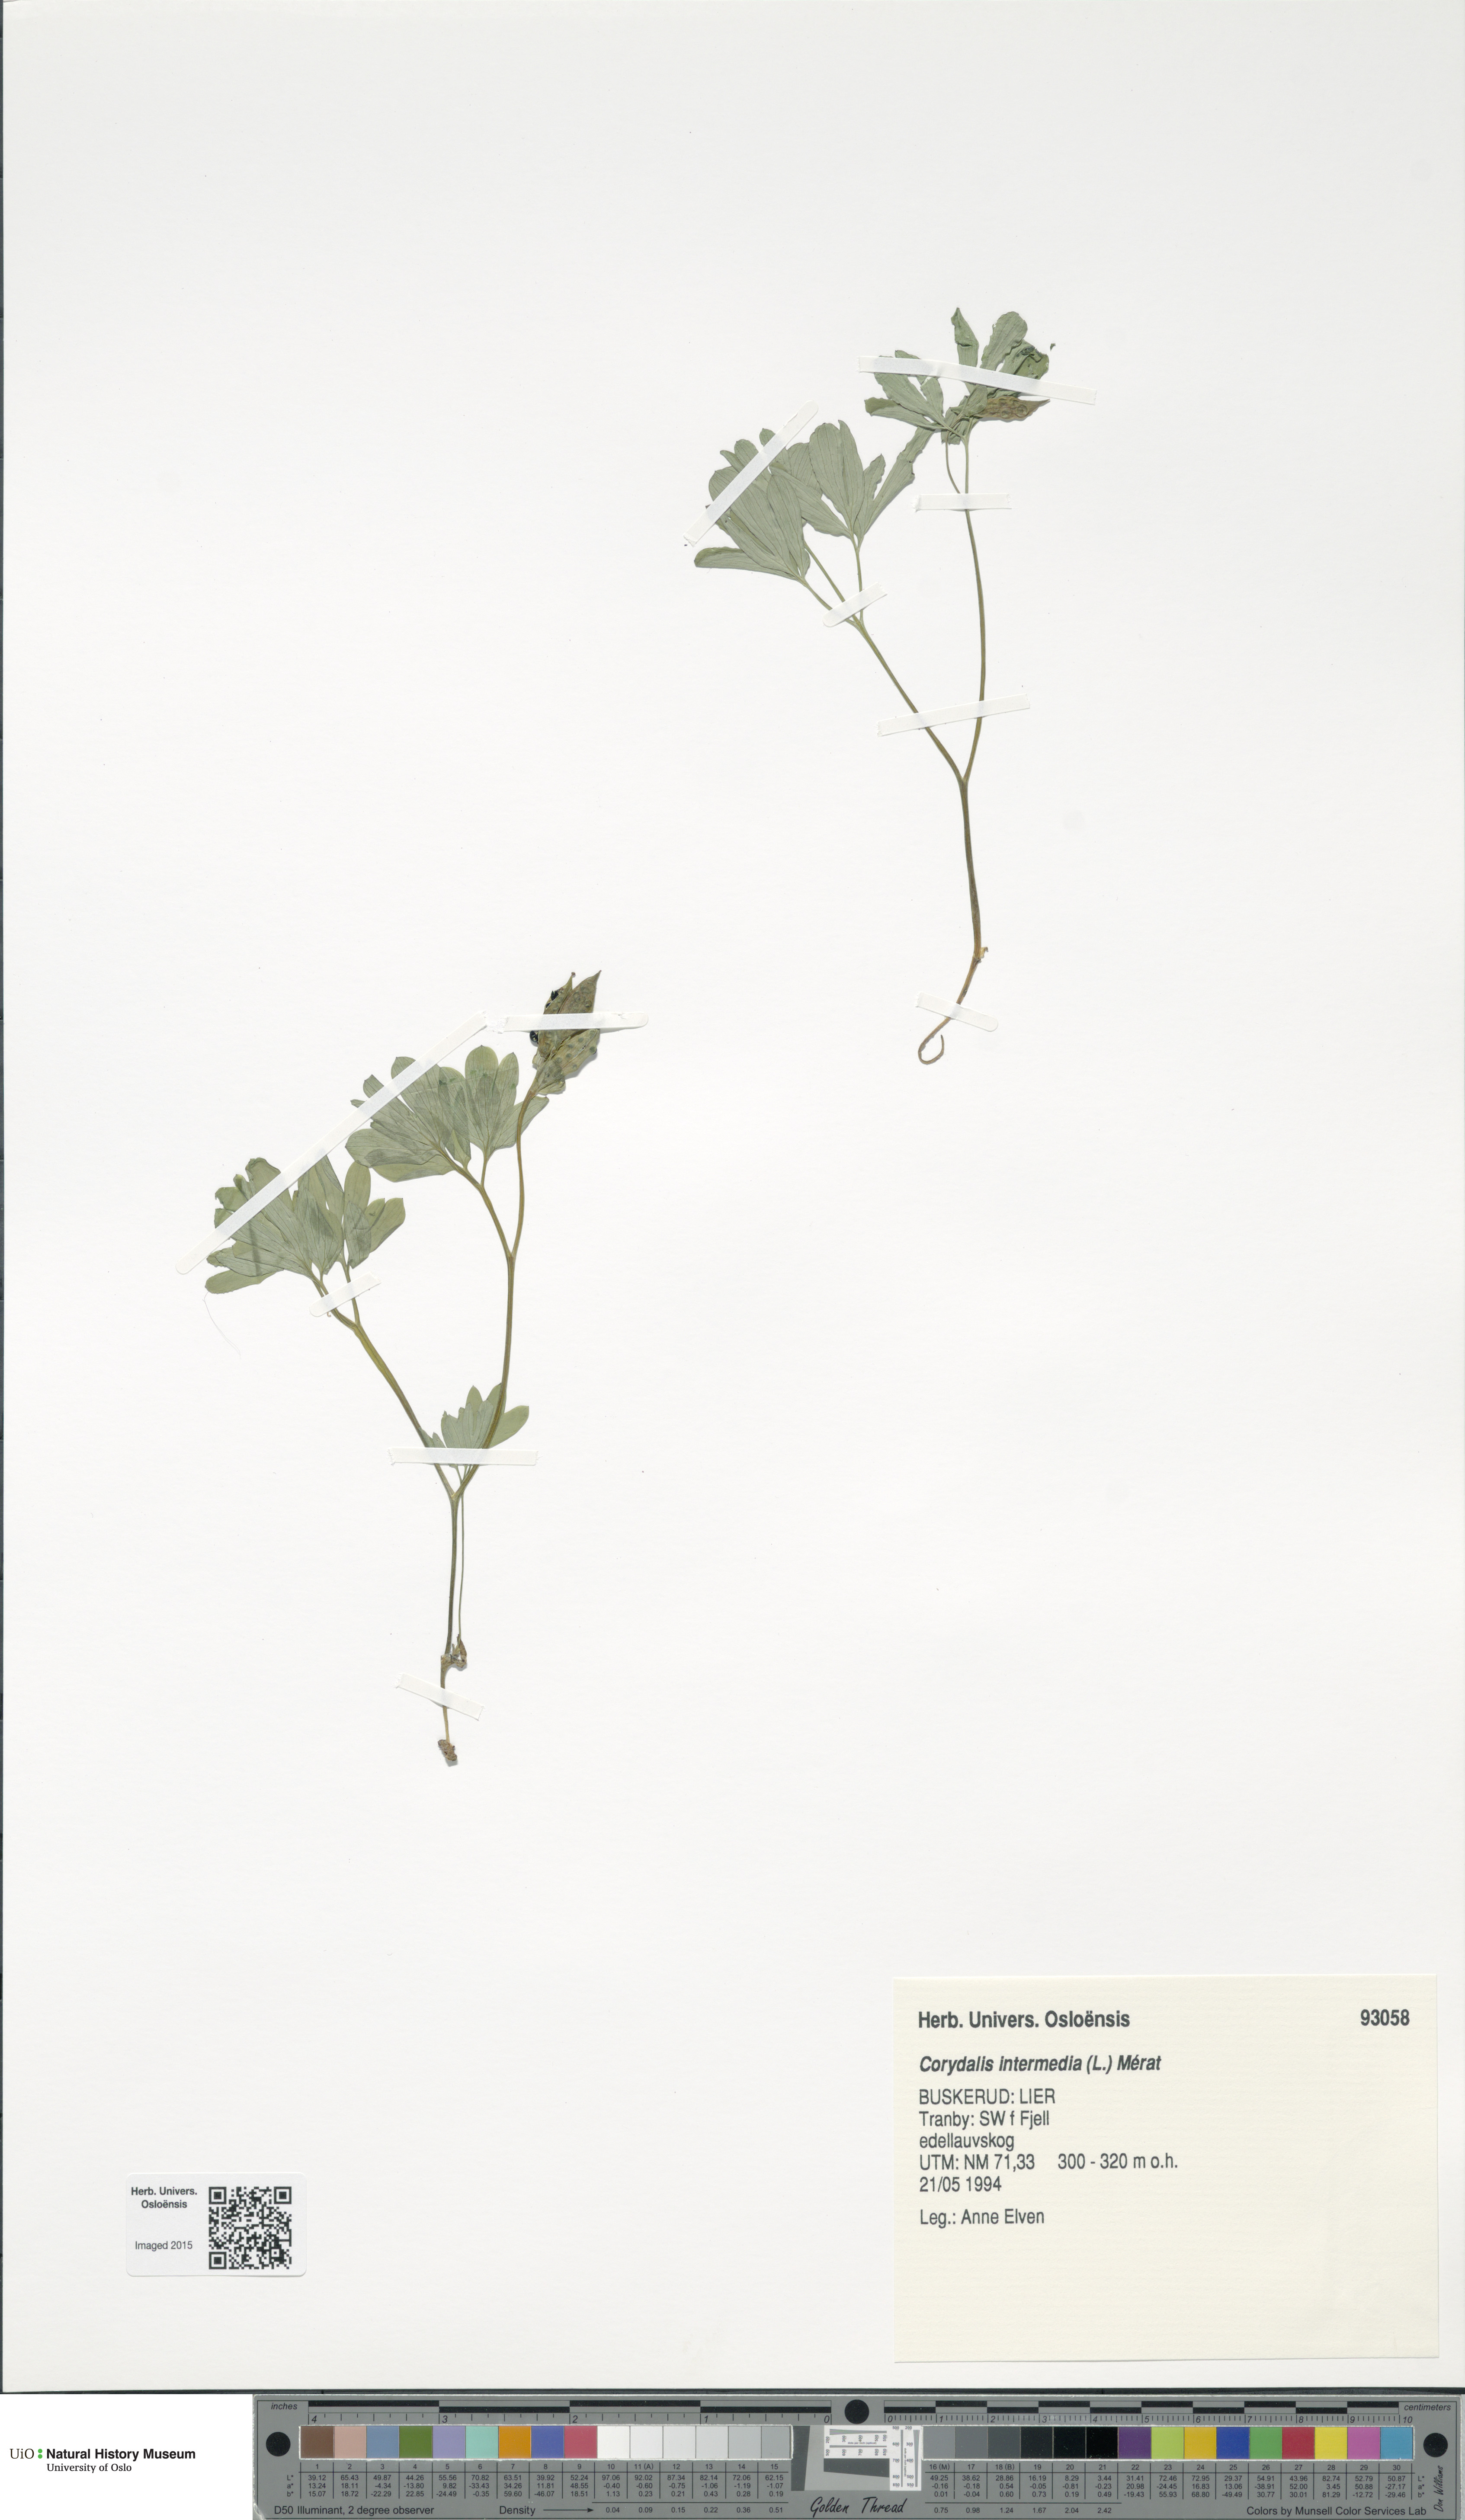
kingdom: Plantae
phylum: Tracheophyta
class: Magnoliopsida
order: Ranunculales
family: Papaveraceae
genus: Corydalis
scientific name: Corydalis intermedia
